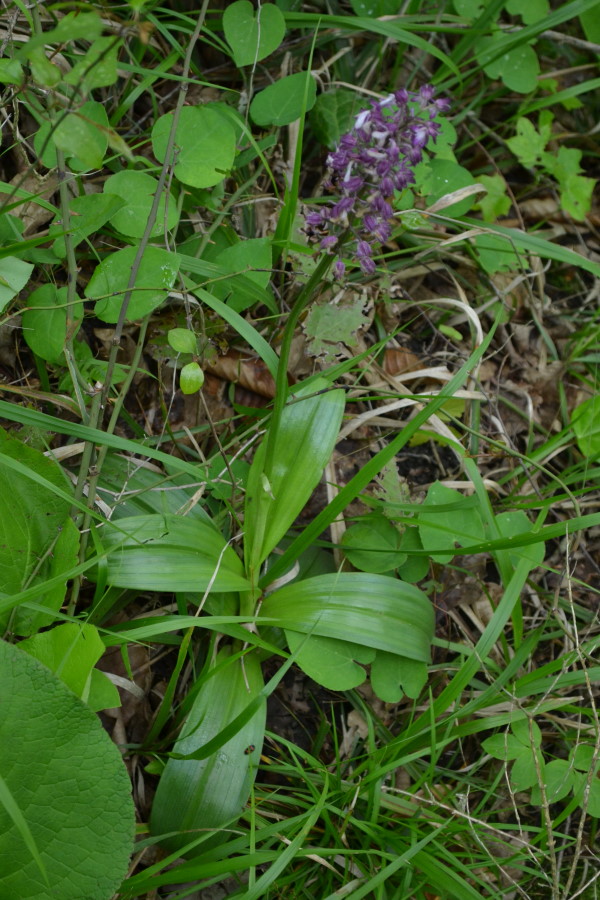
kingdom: Plantae
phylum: Tracheophyta
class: Liliopsida
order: Asparagales
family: Orchidaceae
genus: Orchis
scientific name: Orchis purpurea
